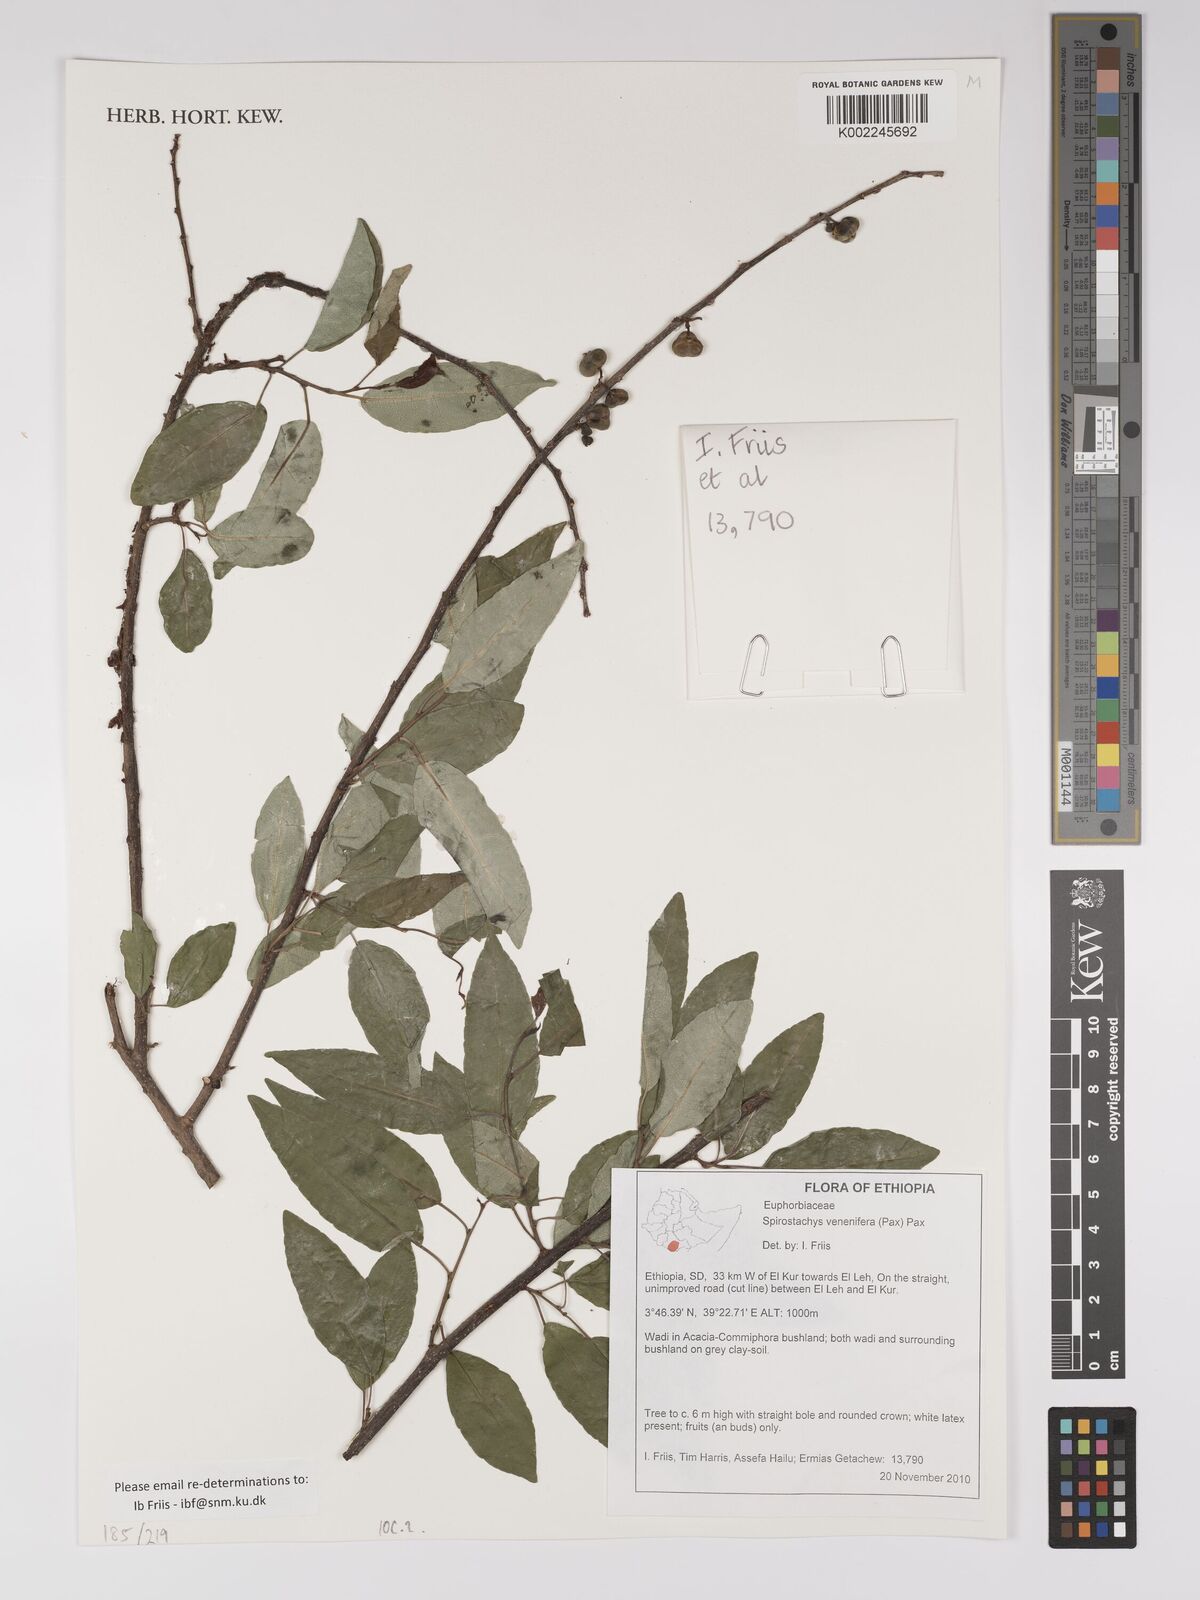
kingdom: Plantae
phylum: Tracheophyta
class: Magnoliopsida
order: Malpighiales
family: Euphorbiaceae
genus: Spirostachys
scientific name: Spirostachys venenifera
